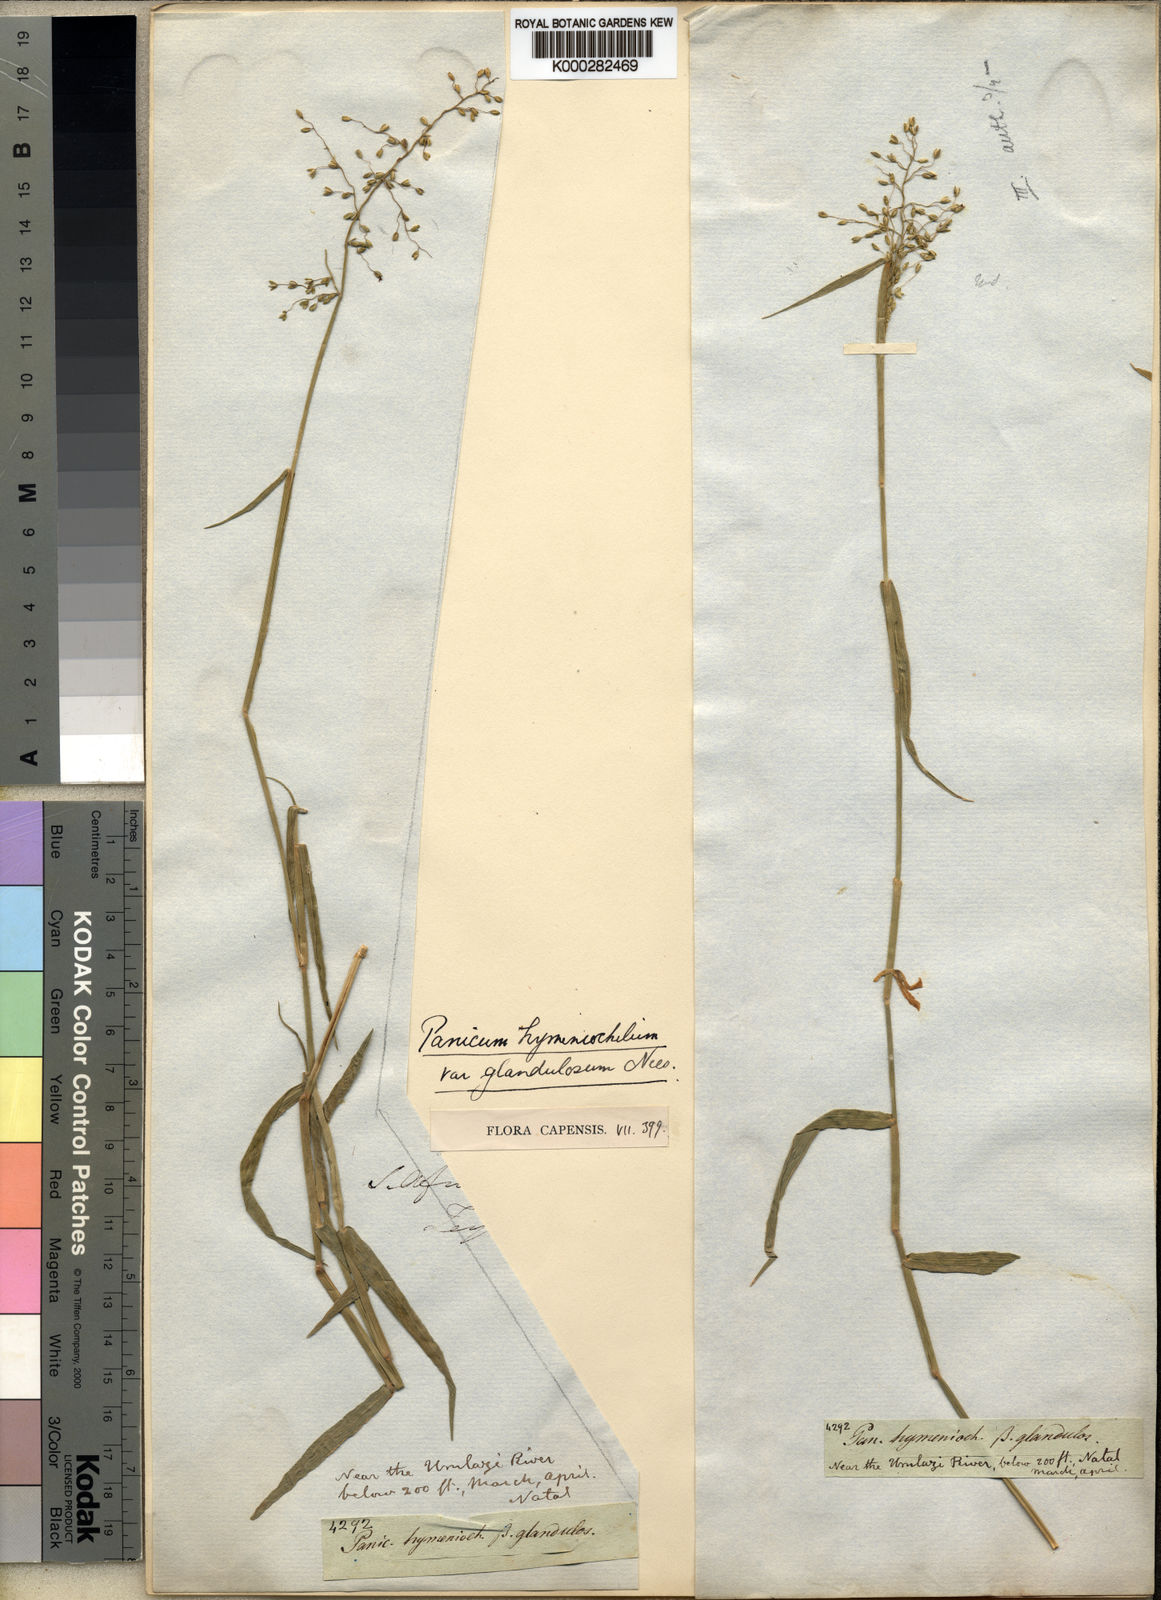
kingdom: Plantae
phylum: Tracheophyta
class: Liliopsida
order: Poales
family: Poaceae
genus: Adenochloa
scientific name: Adenochloa hymeniochila
